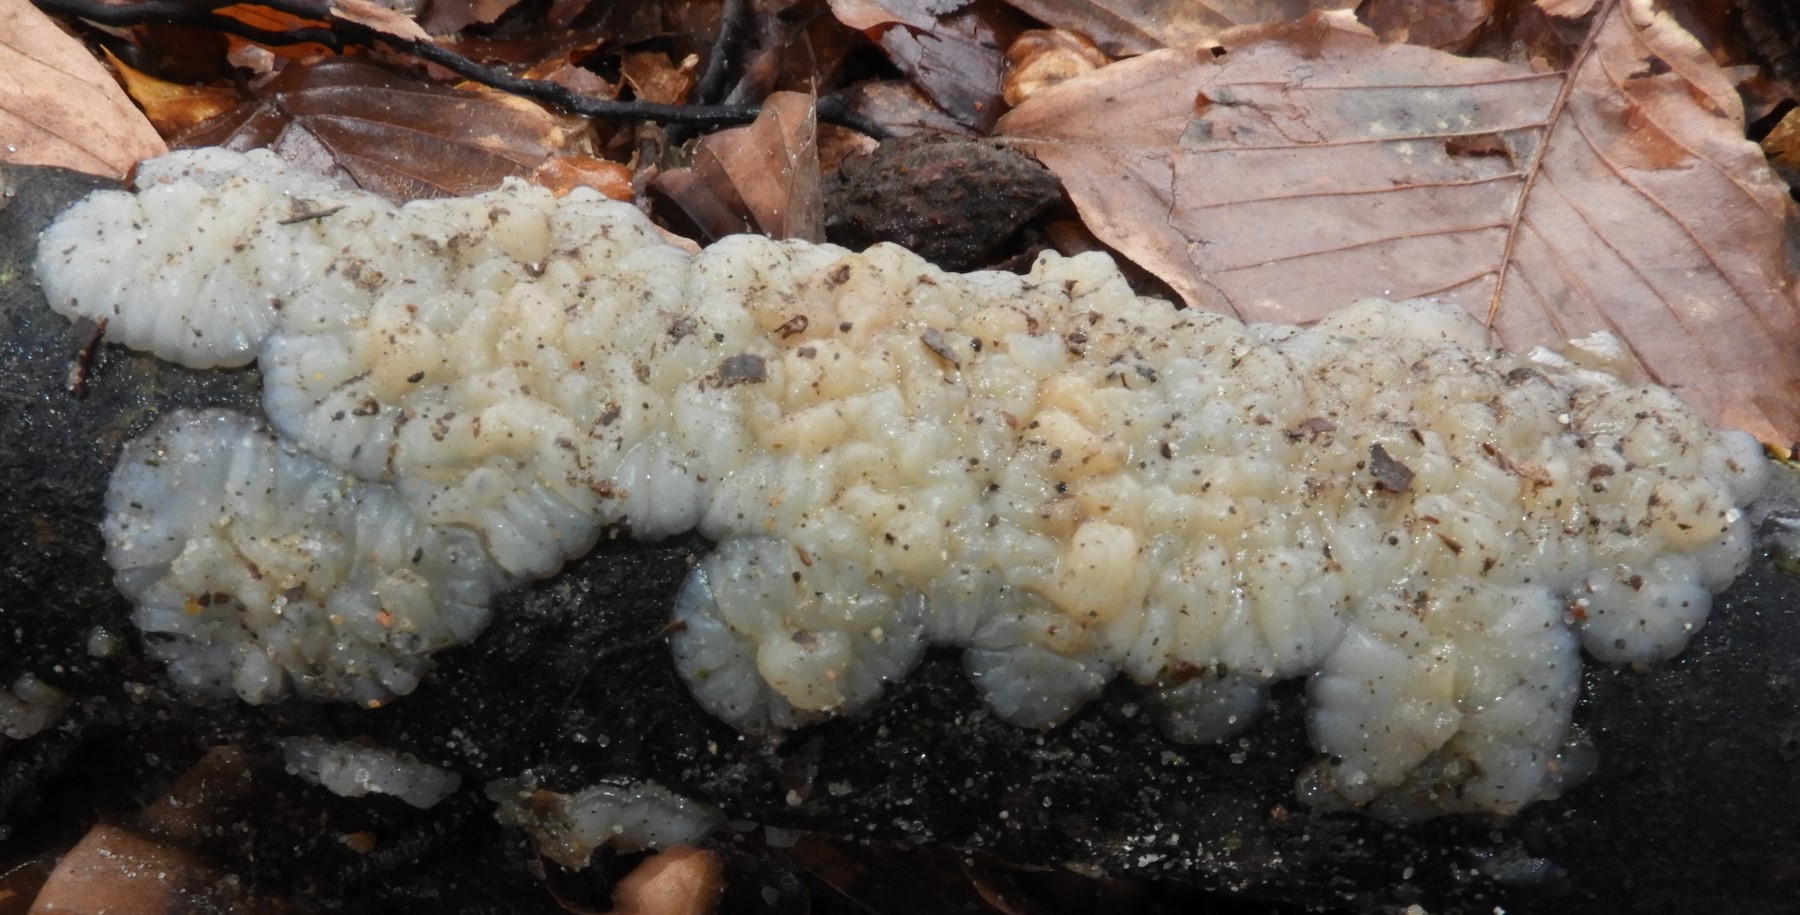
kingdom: Fungi
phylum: Basidiomycota
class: Agaricomycetes
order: Auriculariales
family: Auriculariaceae
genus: Exidia
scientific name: Exidia thuretiana
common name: hvidlig bævretop
